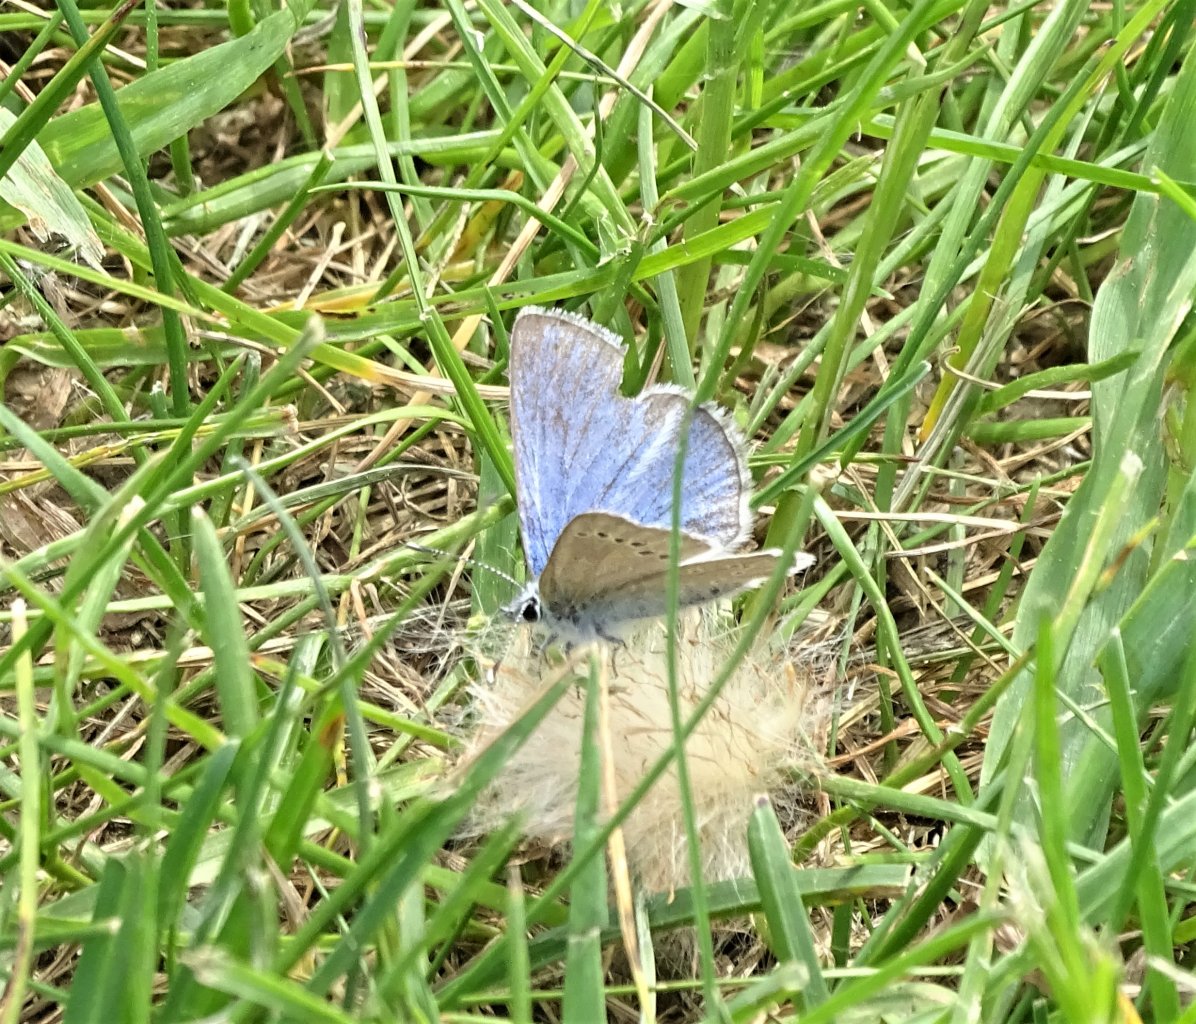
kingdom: Animalia
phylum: Arthropoda
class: Insecta
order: Lepidoptera
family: Lycaenidae
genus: Glaucopsyche
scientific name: Glaucopsyche lygdamus
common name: Silvery Blue
